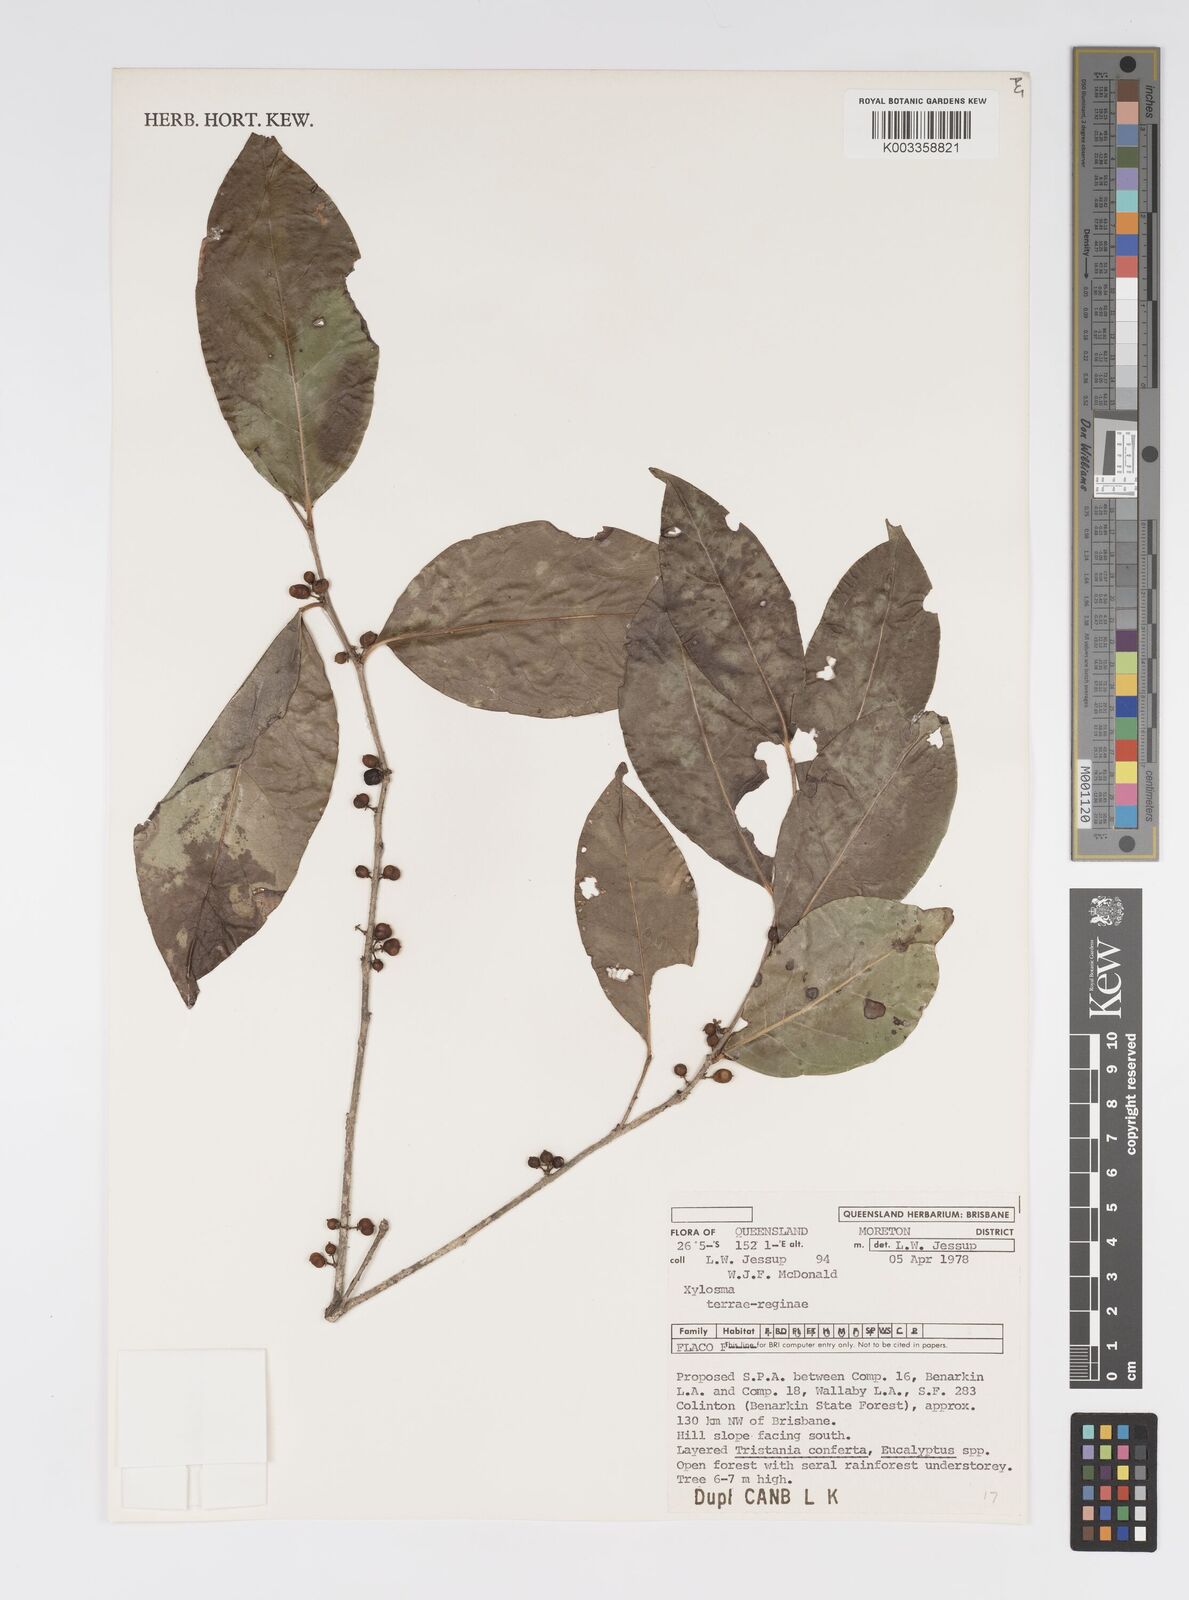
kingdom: Plantae
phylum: Tracheophyta
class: Magnoliopsida
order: Malpighiales
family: Salicaceae
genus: Xylosma
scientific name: Xylosma terrae-reginae
